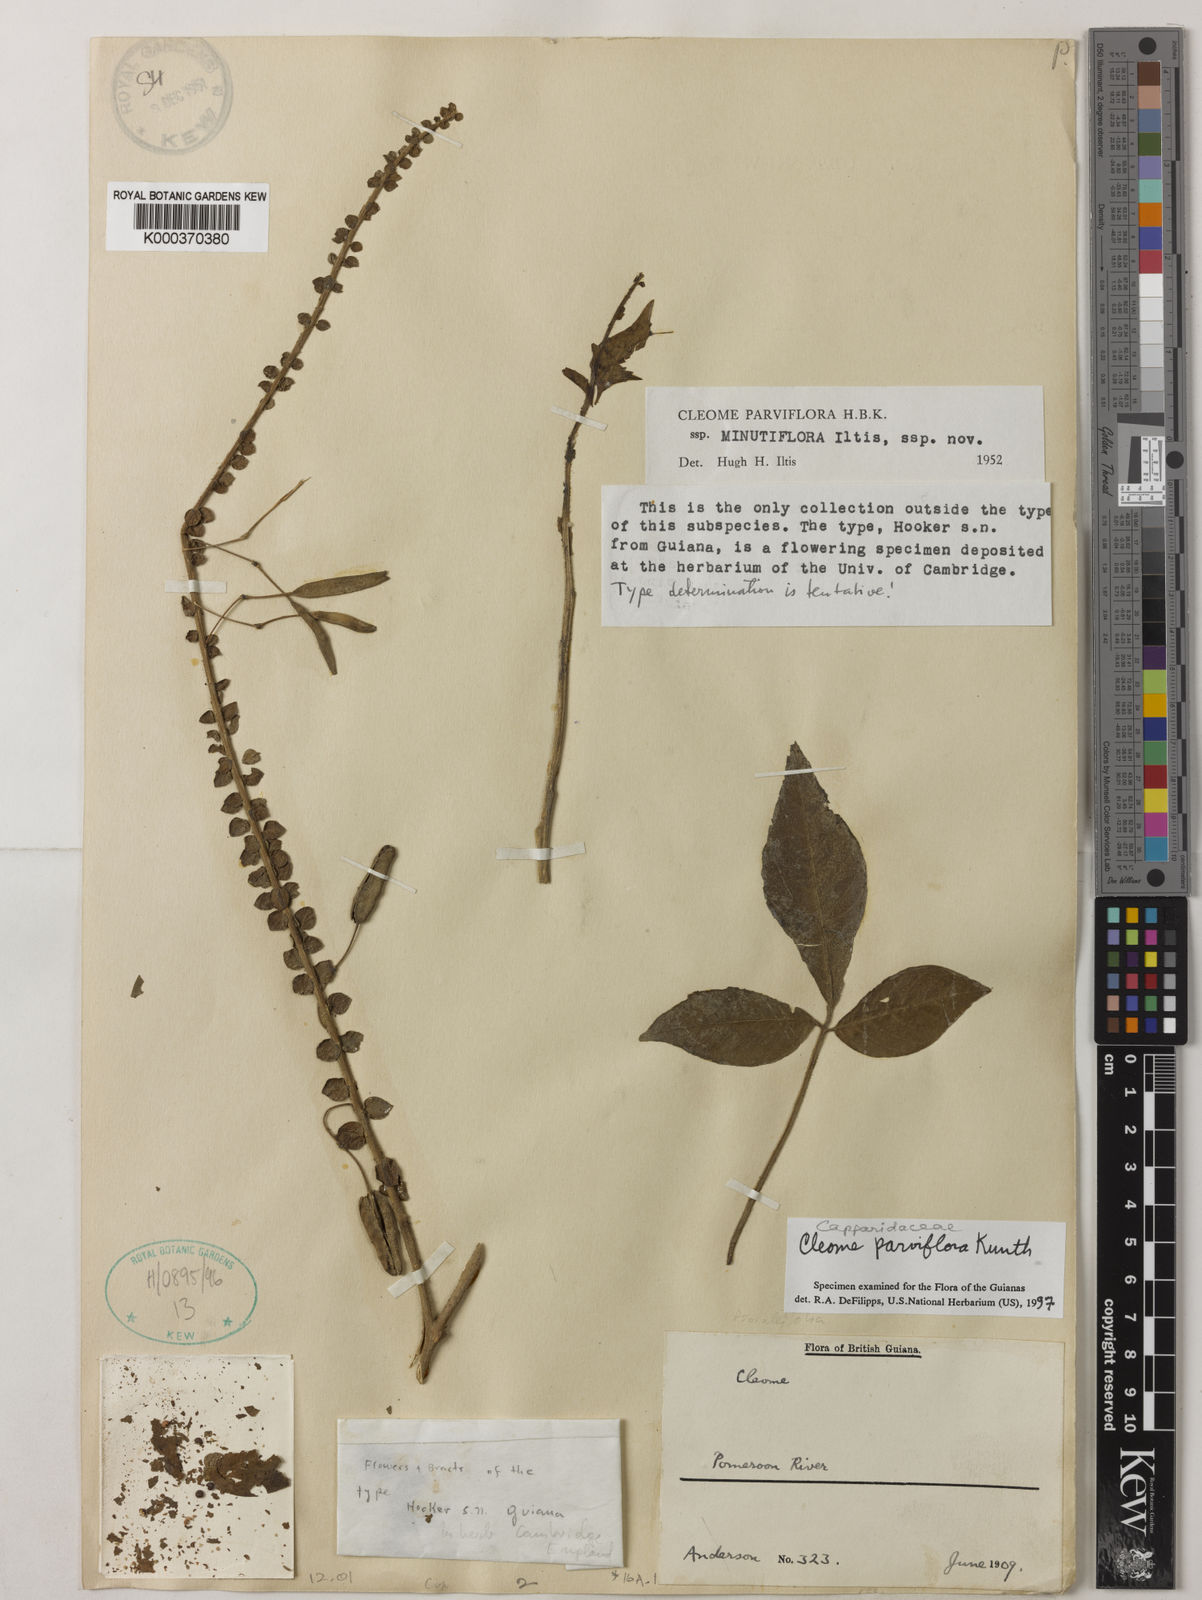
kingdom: Plantae
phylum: Tracheophyta
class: Magnoliopsida
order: Brassicales
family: Cleomaceae
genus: Tarenaya
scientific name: Tarenaya parviflora
